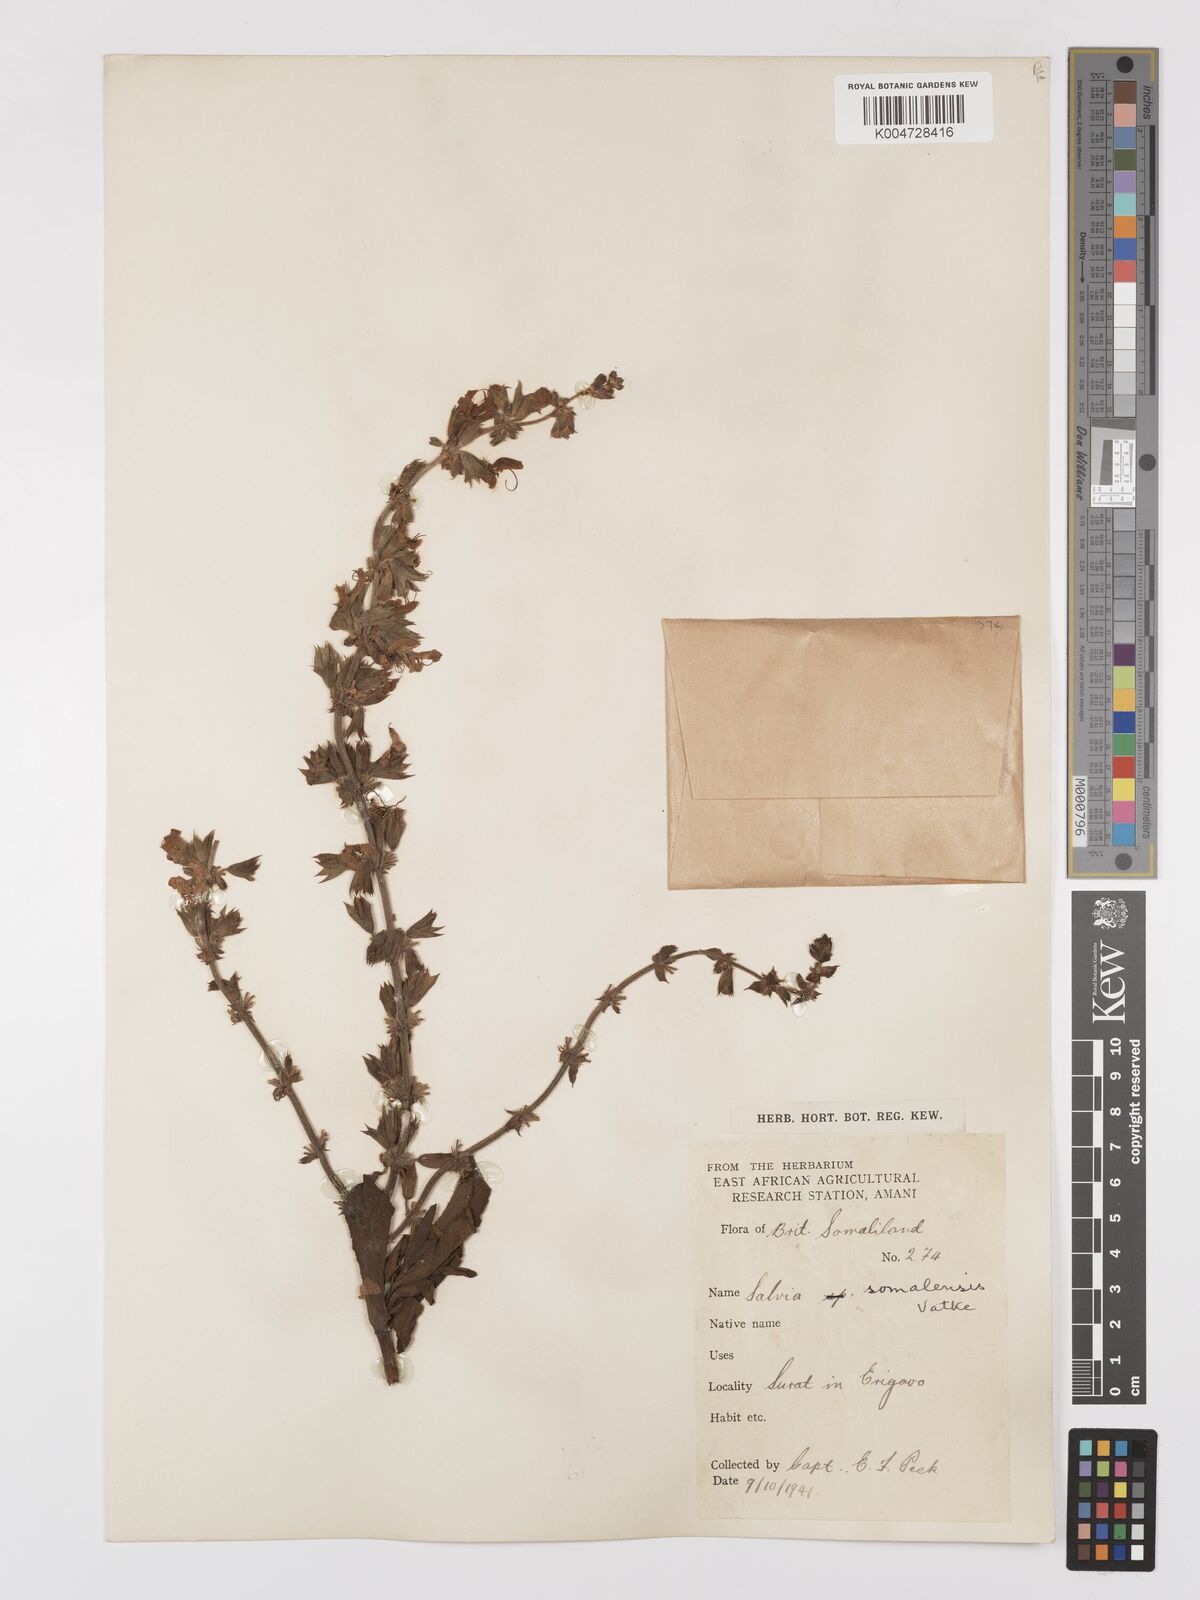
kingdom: Plantae
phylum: Tracheophyta
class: Magnoliopsida
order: Lamiales
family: Lamiaceae
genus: Salvia
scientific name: Salvia somalensis
